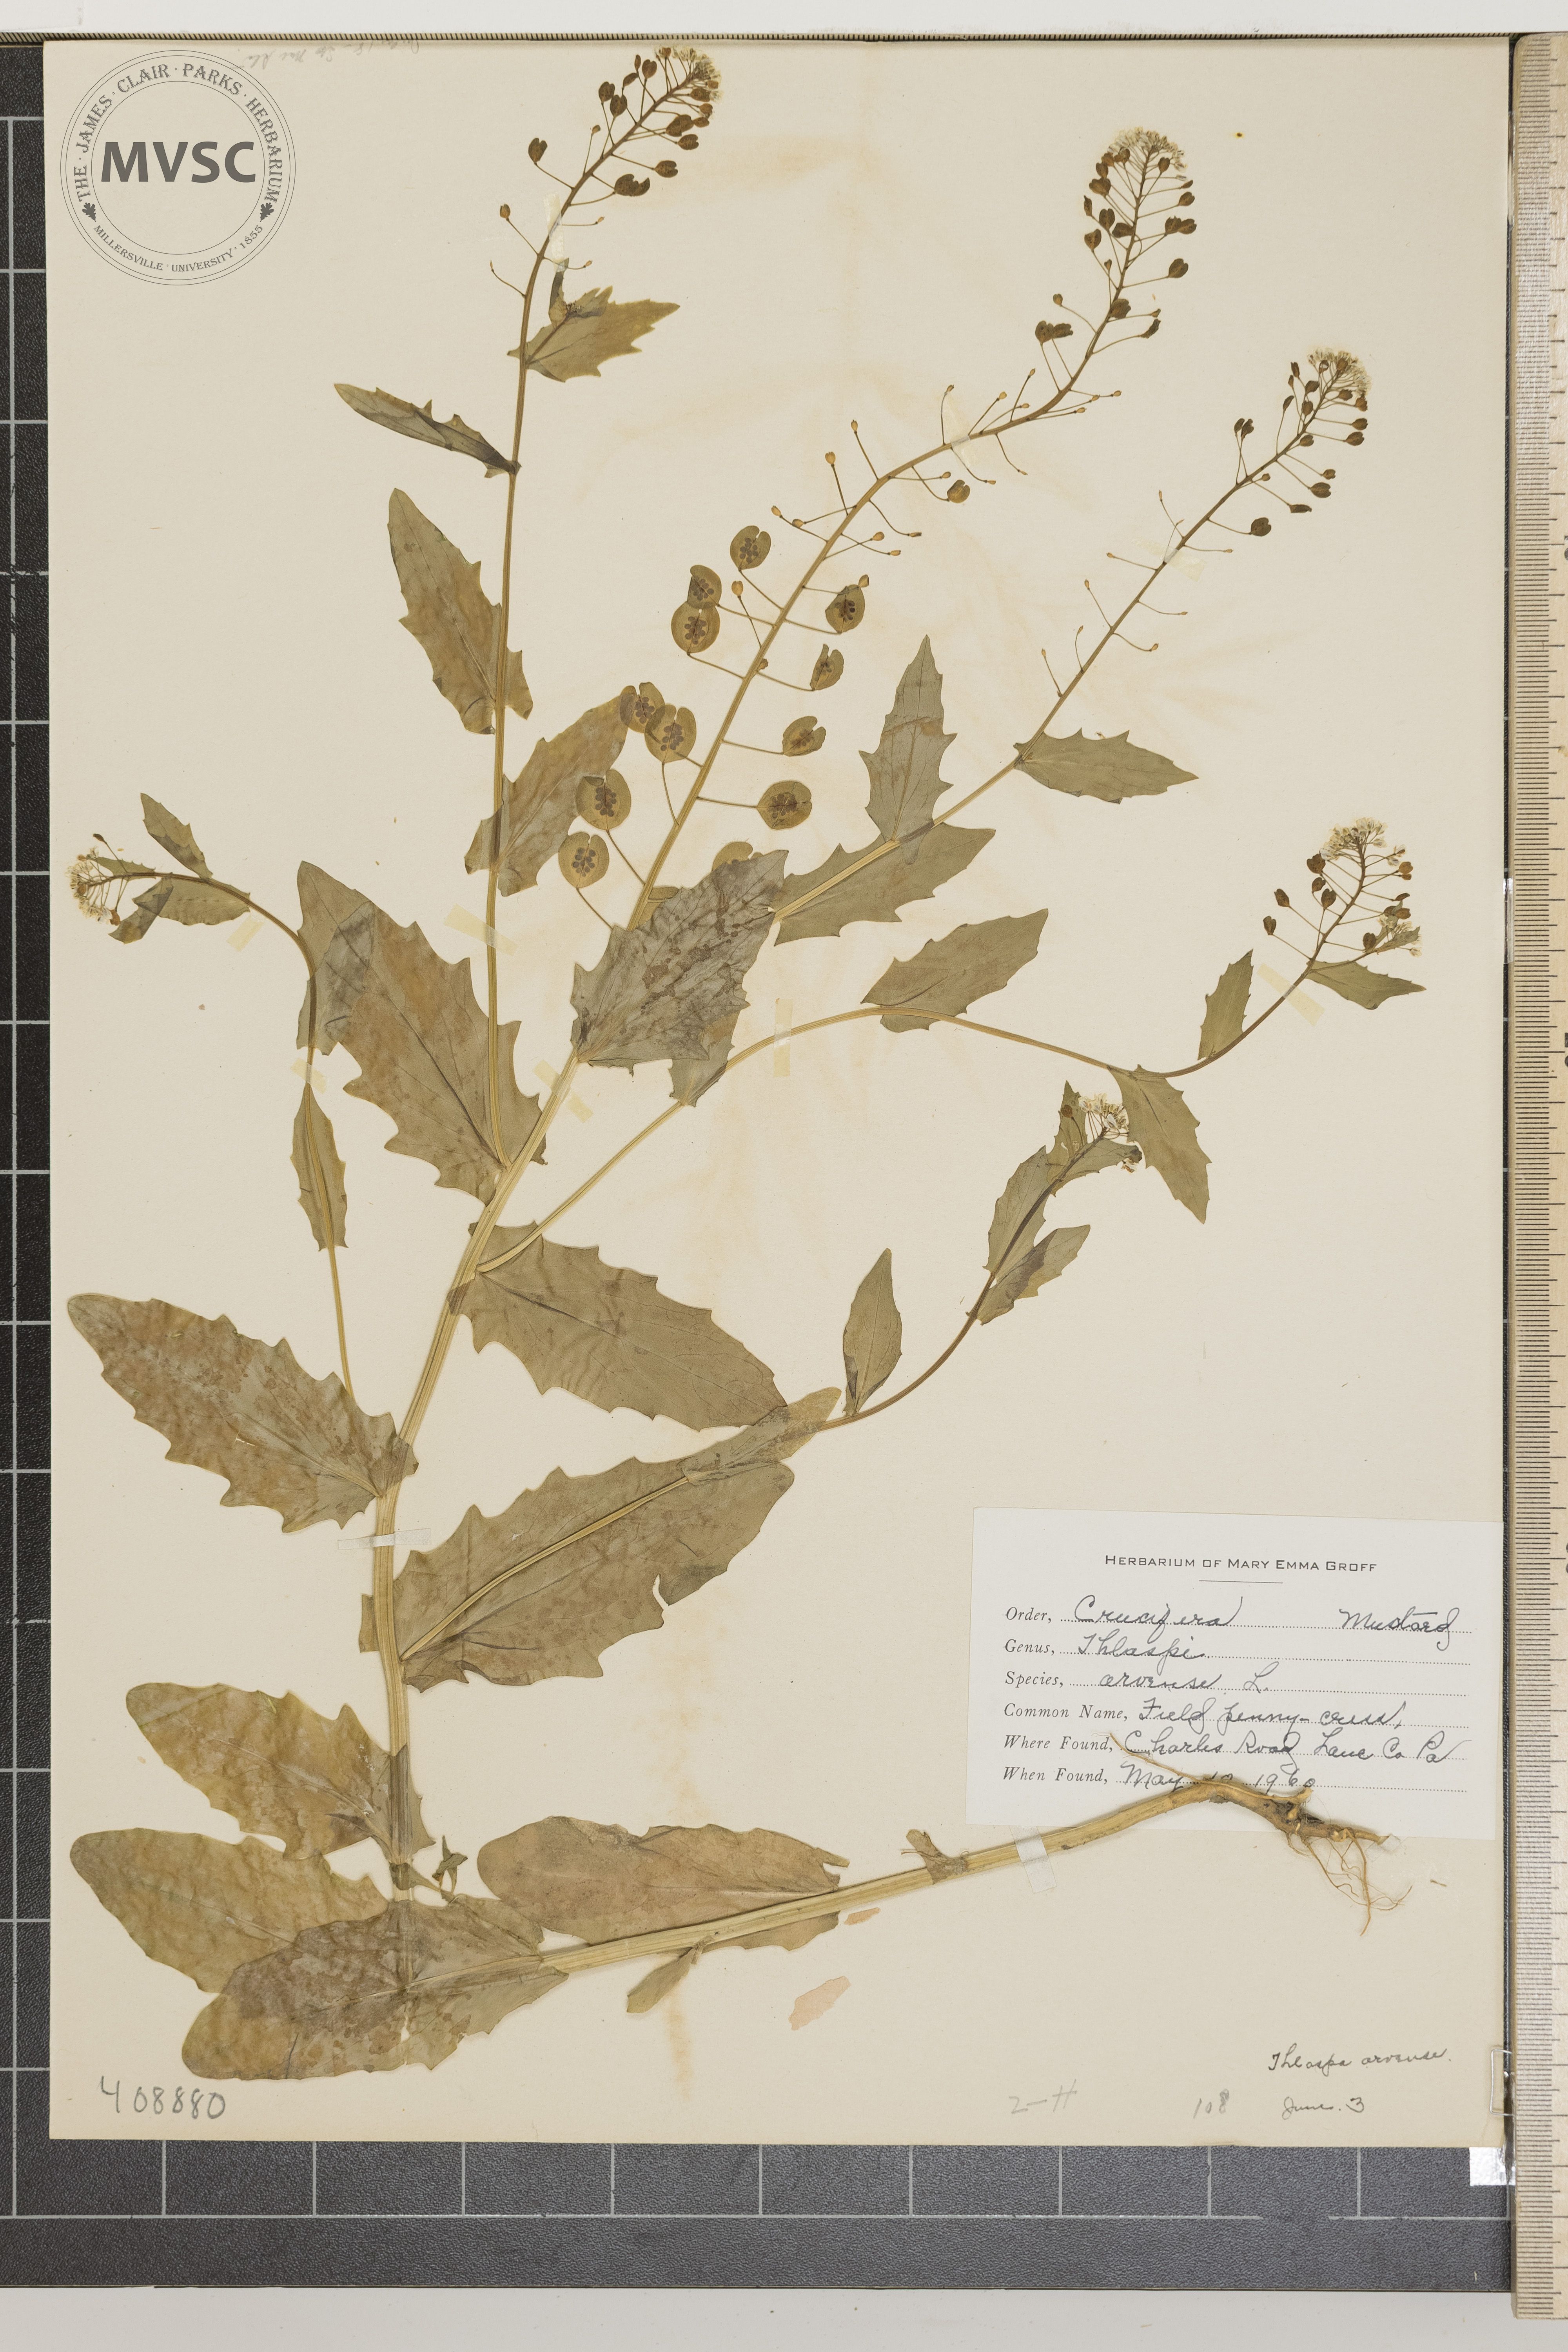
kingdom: Plantae
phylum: Tracheophyta
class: Magnoliopsida
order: Brassicales
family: Brassicaceae
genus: Thlaspi
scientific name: Thlaspi arvense
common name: field penny-cress
